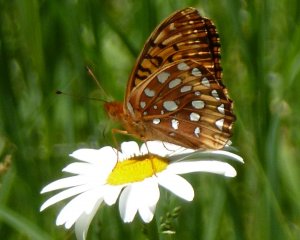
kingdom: Animalia
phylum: Arthropoda
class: Insecta
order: Lepidoptera
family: Nymphalidae
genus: Speyeria
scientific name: Speyeria cybele
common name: Great Spangled Fritillary
